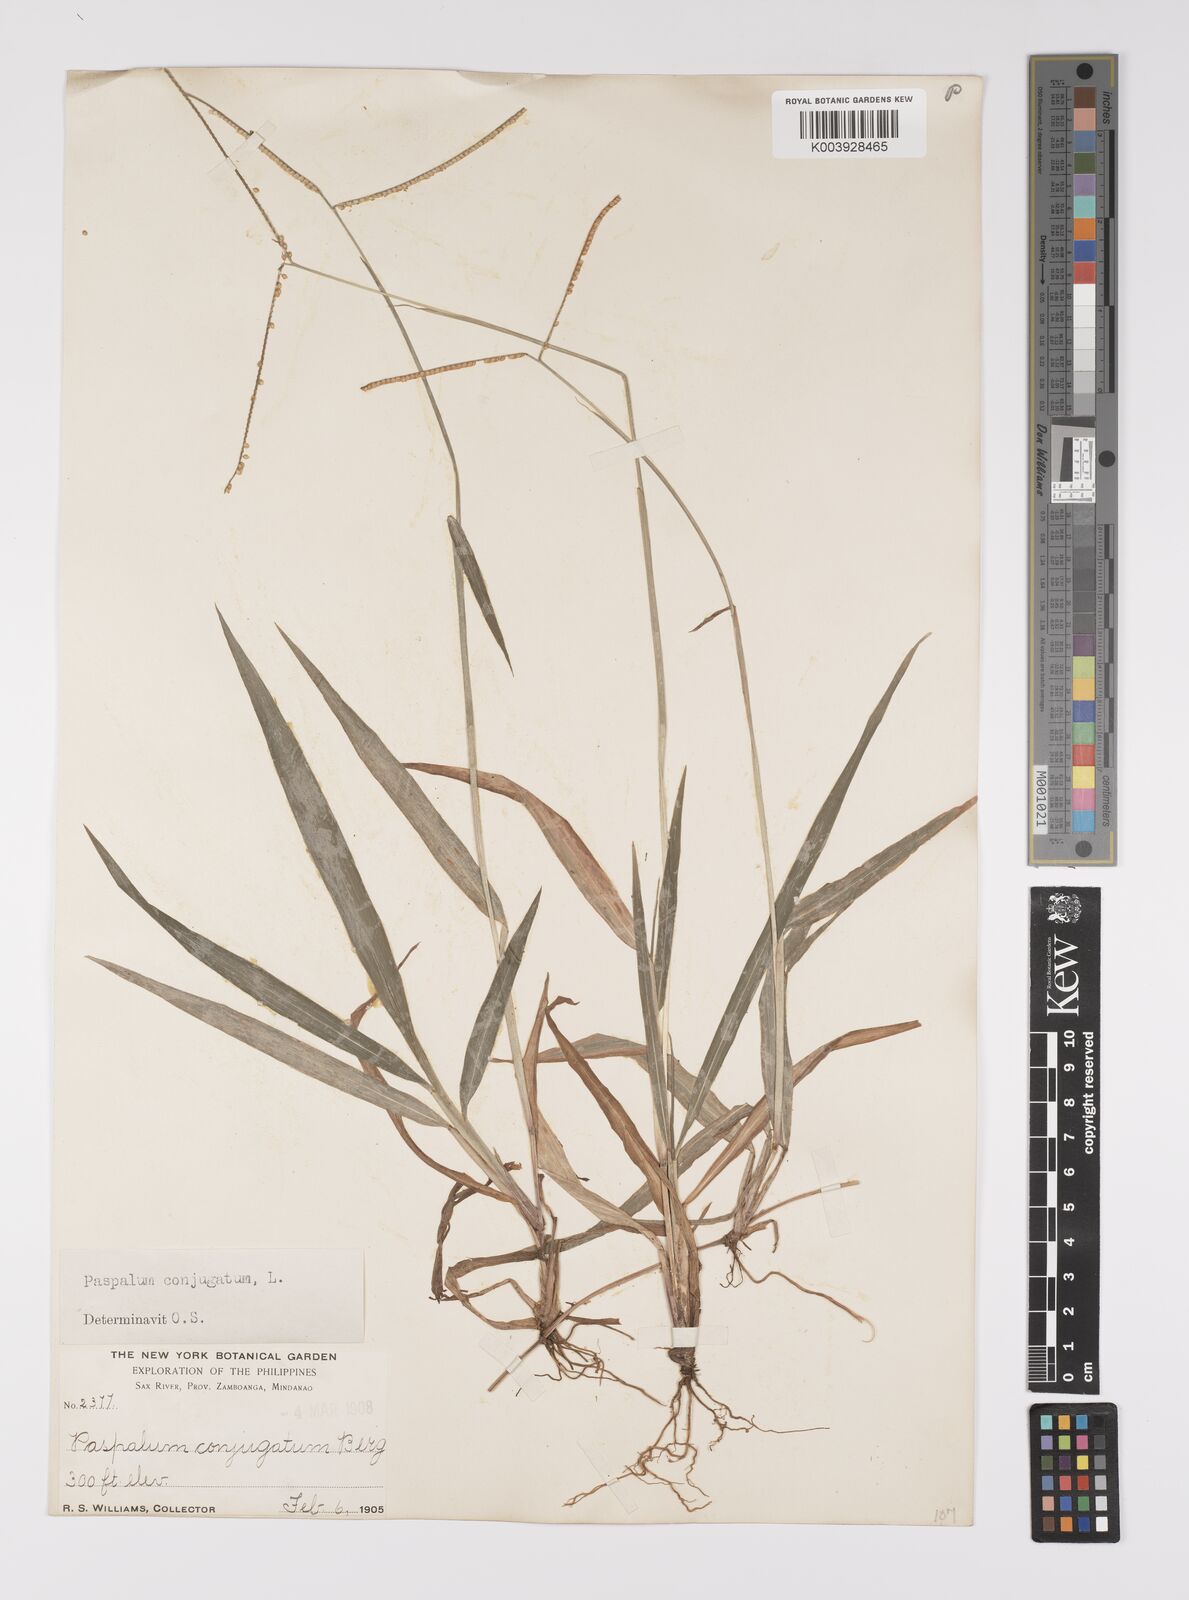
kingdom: Plantae
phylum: Tracheophyta
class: Liliopsida
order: Poales
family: Poaceae
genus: Paspalum
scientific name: Paspalum conjugatum
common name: Hilograss
